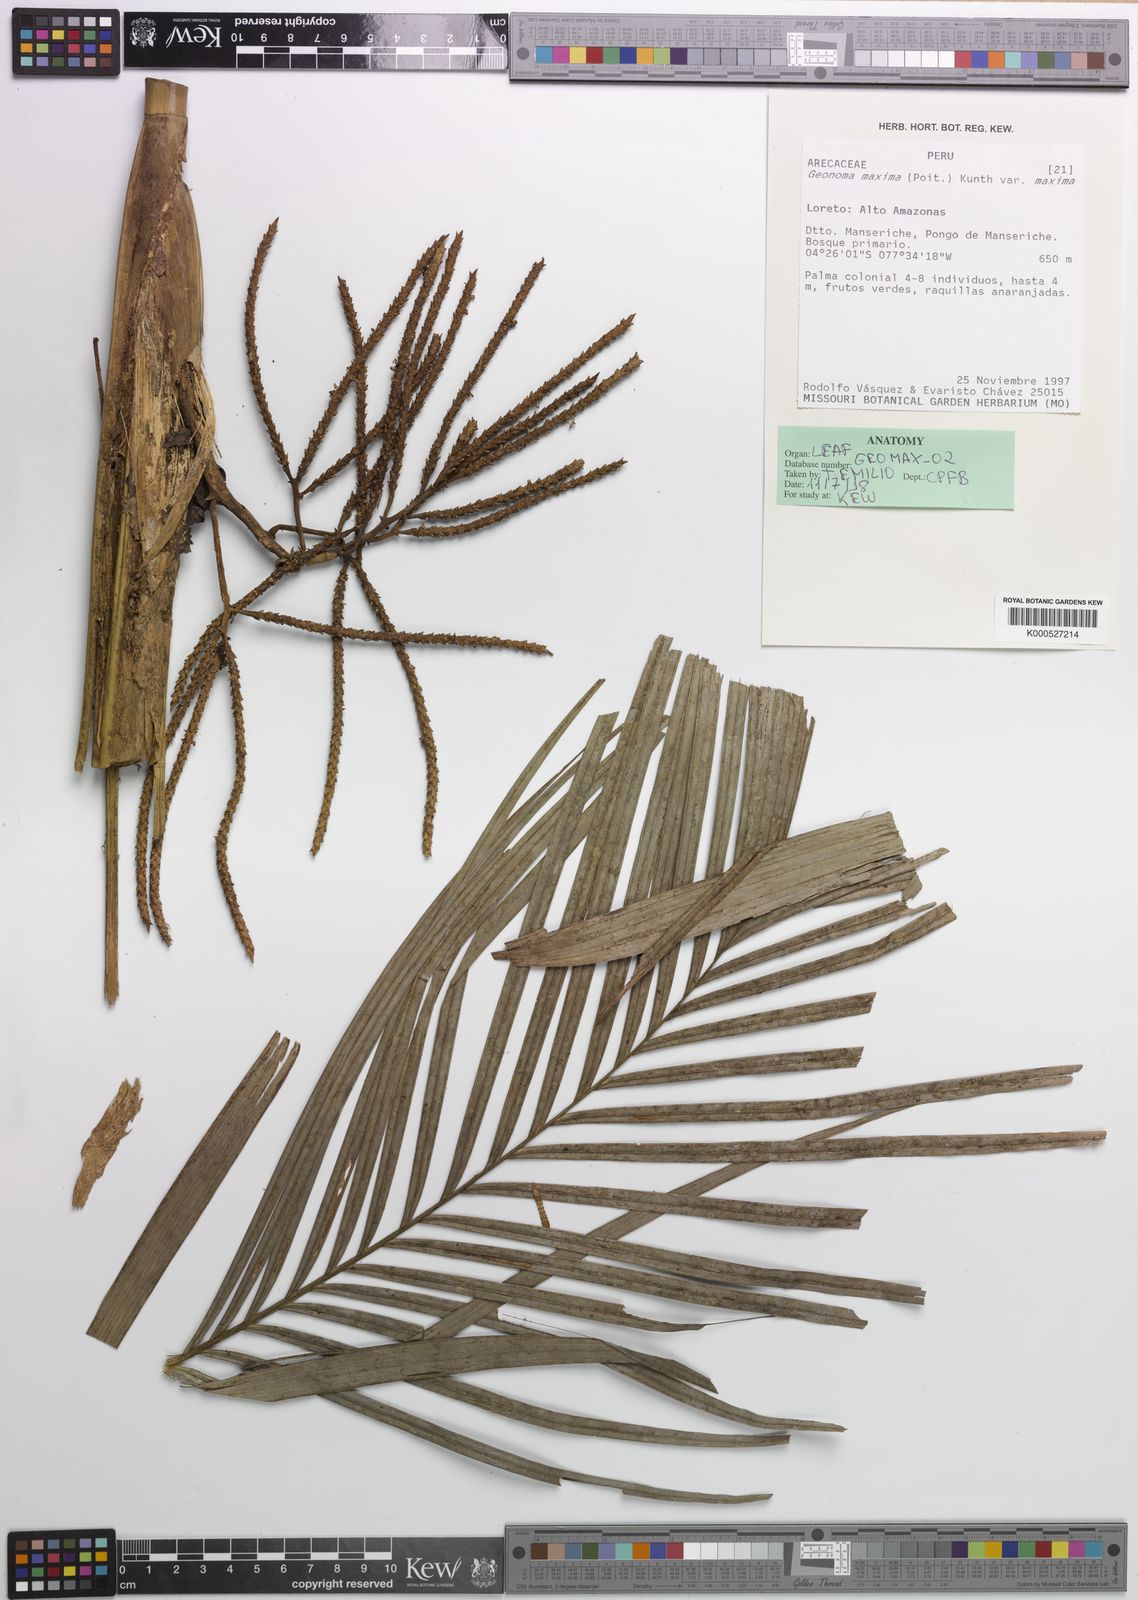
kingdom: Plantae
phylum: Tracheophyta
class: Liliopsida
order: Arecales
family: Arecaceae
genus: Geonoma
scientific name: Geonoma maxima
